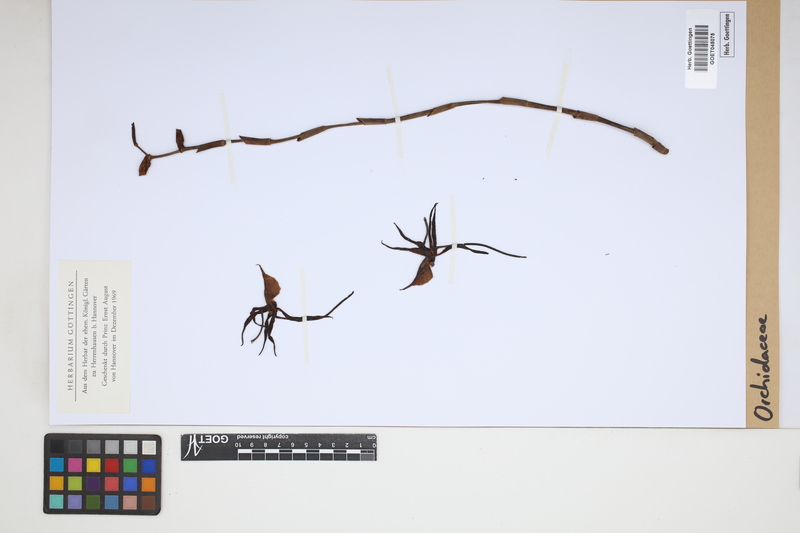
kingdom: Plantae
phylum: Tracheophyta
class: Liliopsida
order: Asparagales
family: Orchidaceae
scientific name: Orchidaceae
